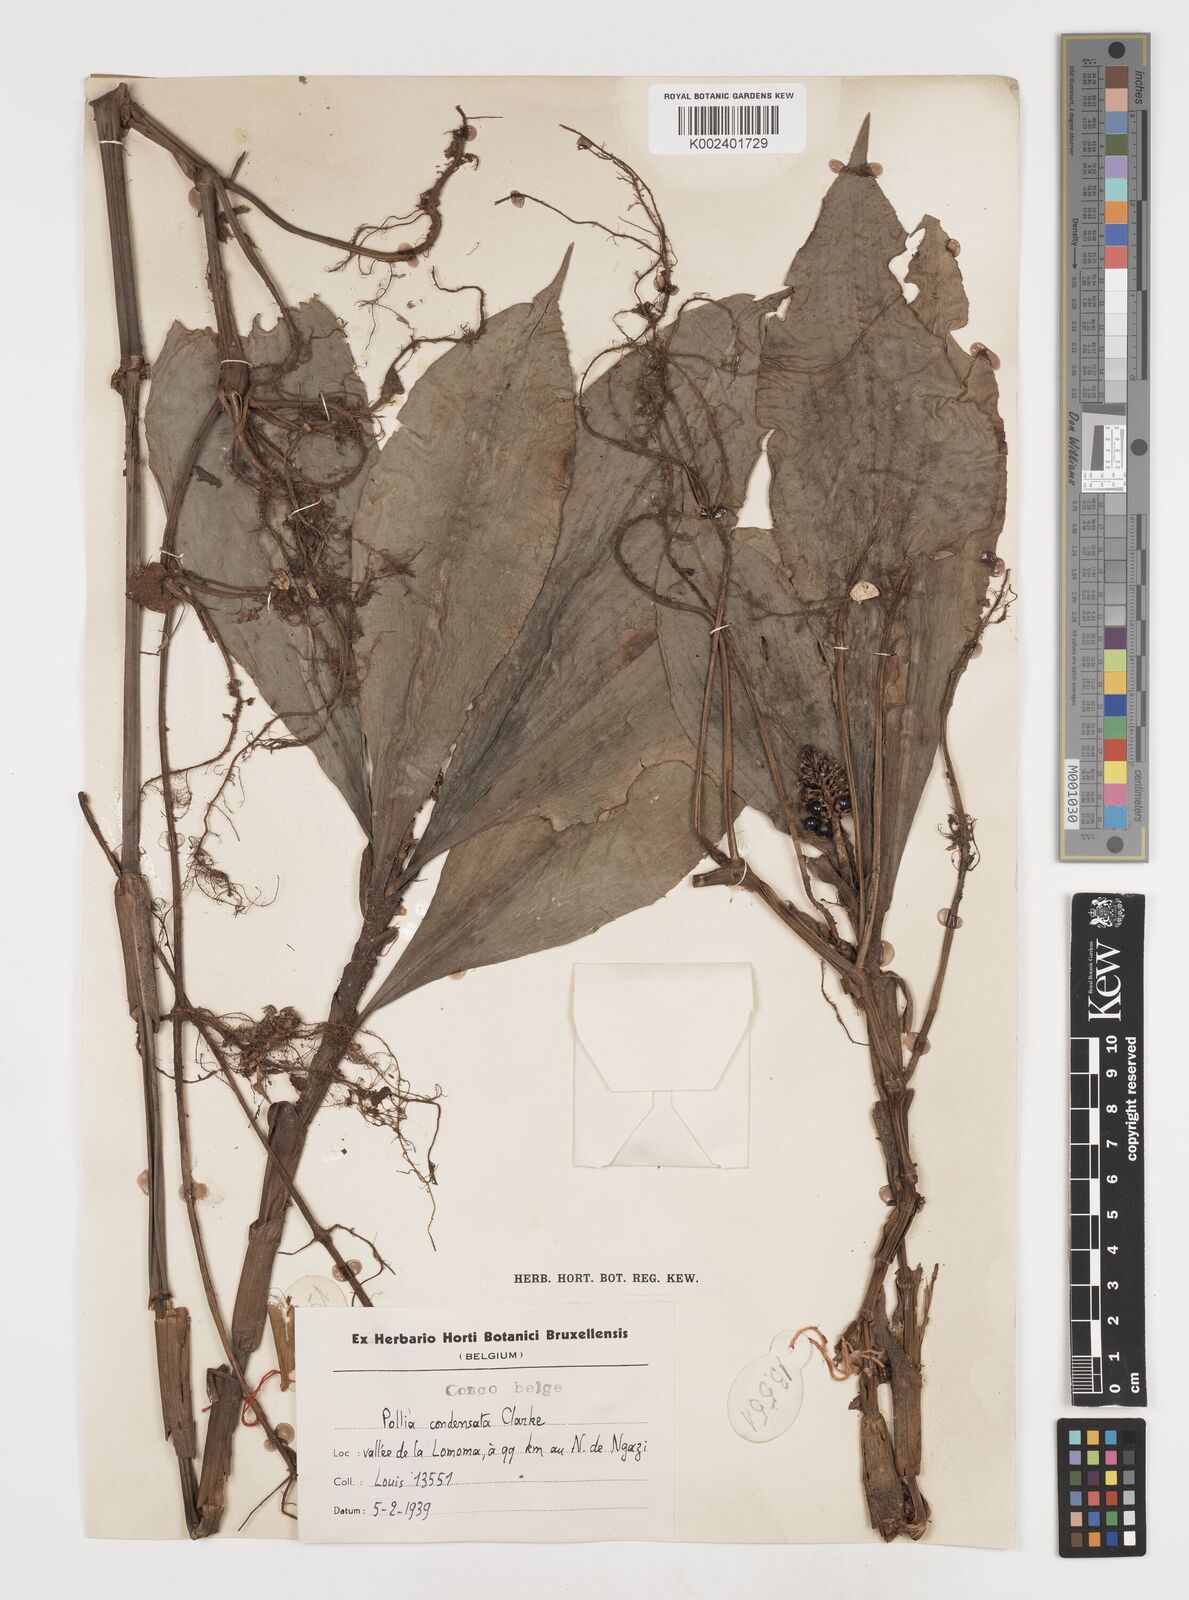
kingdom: Plantae
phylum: Tracheophyta
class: Liliopsida
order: Commelinales
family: Commelinaceae
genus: Pollia
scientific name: Pollia condensata
